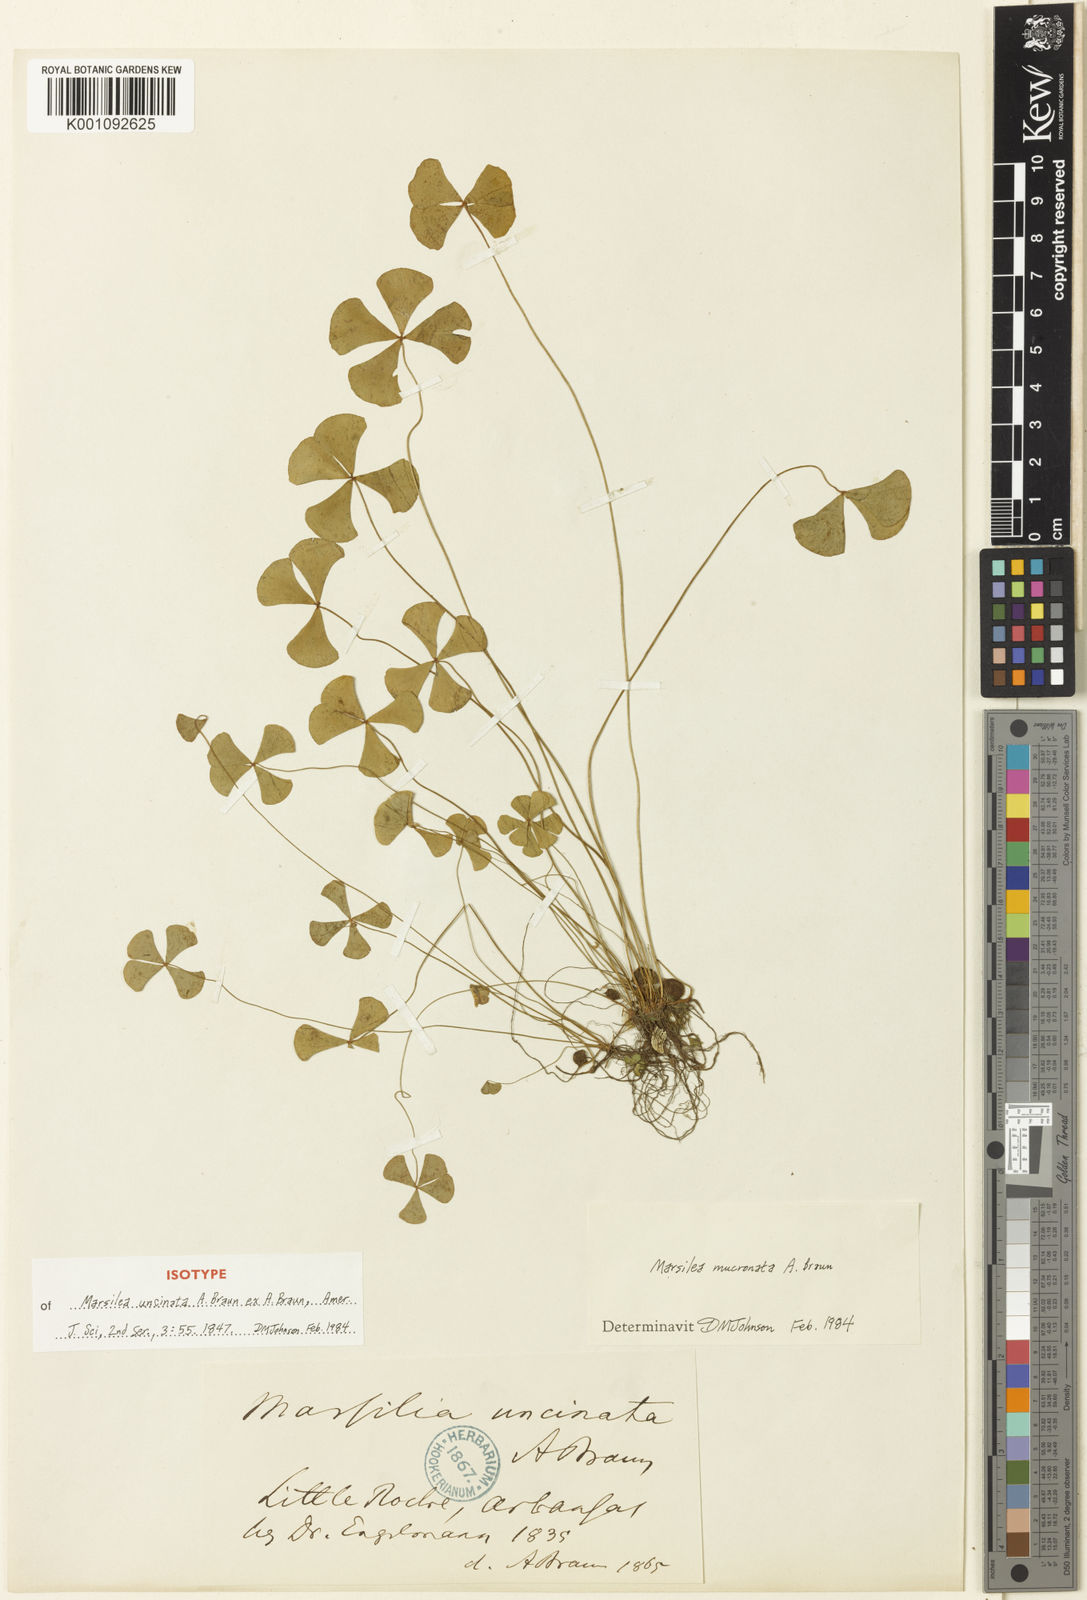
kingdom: Plantae
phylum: Tracheophyta
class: Polypodiopsida
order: Salviniales
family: Marsileaceae
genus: Marsilea
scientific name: Marsilea vestita
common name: Hooked-pepperwort
